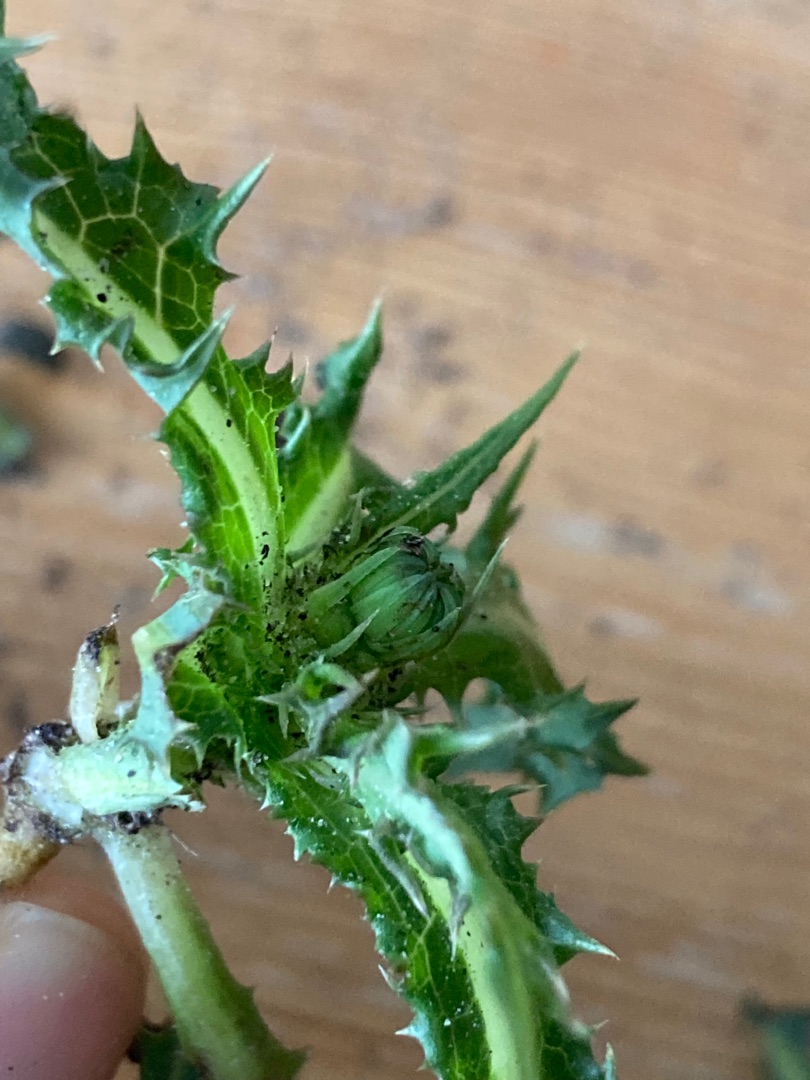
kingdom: Plantae
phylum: Tracheophyta
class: Magnoliopsida
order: Asterales
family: Asteraceae
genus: Sonchus
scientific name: Sonchus asper
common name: Ru svinemælk
